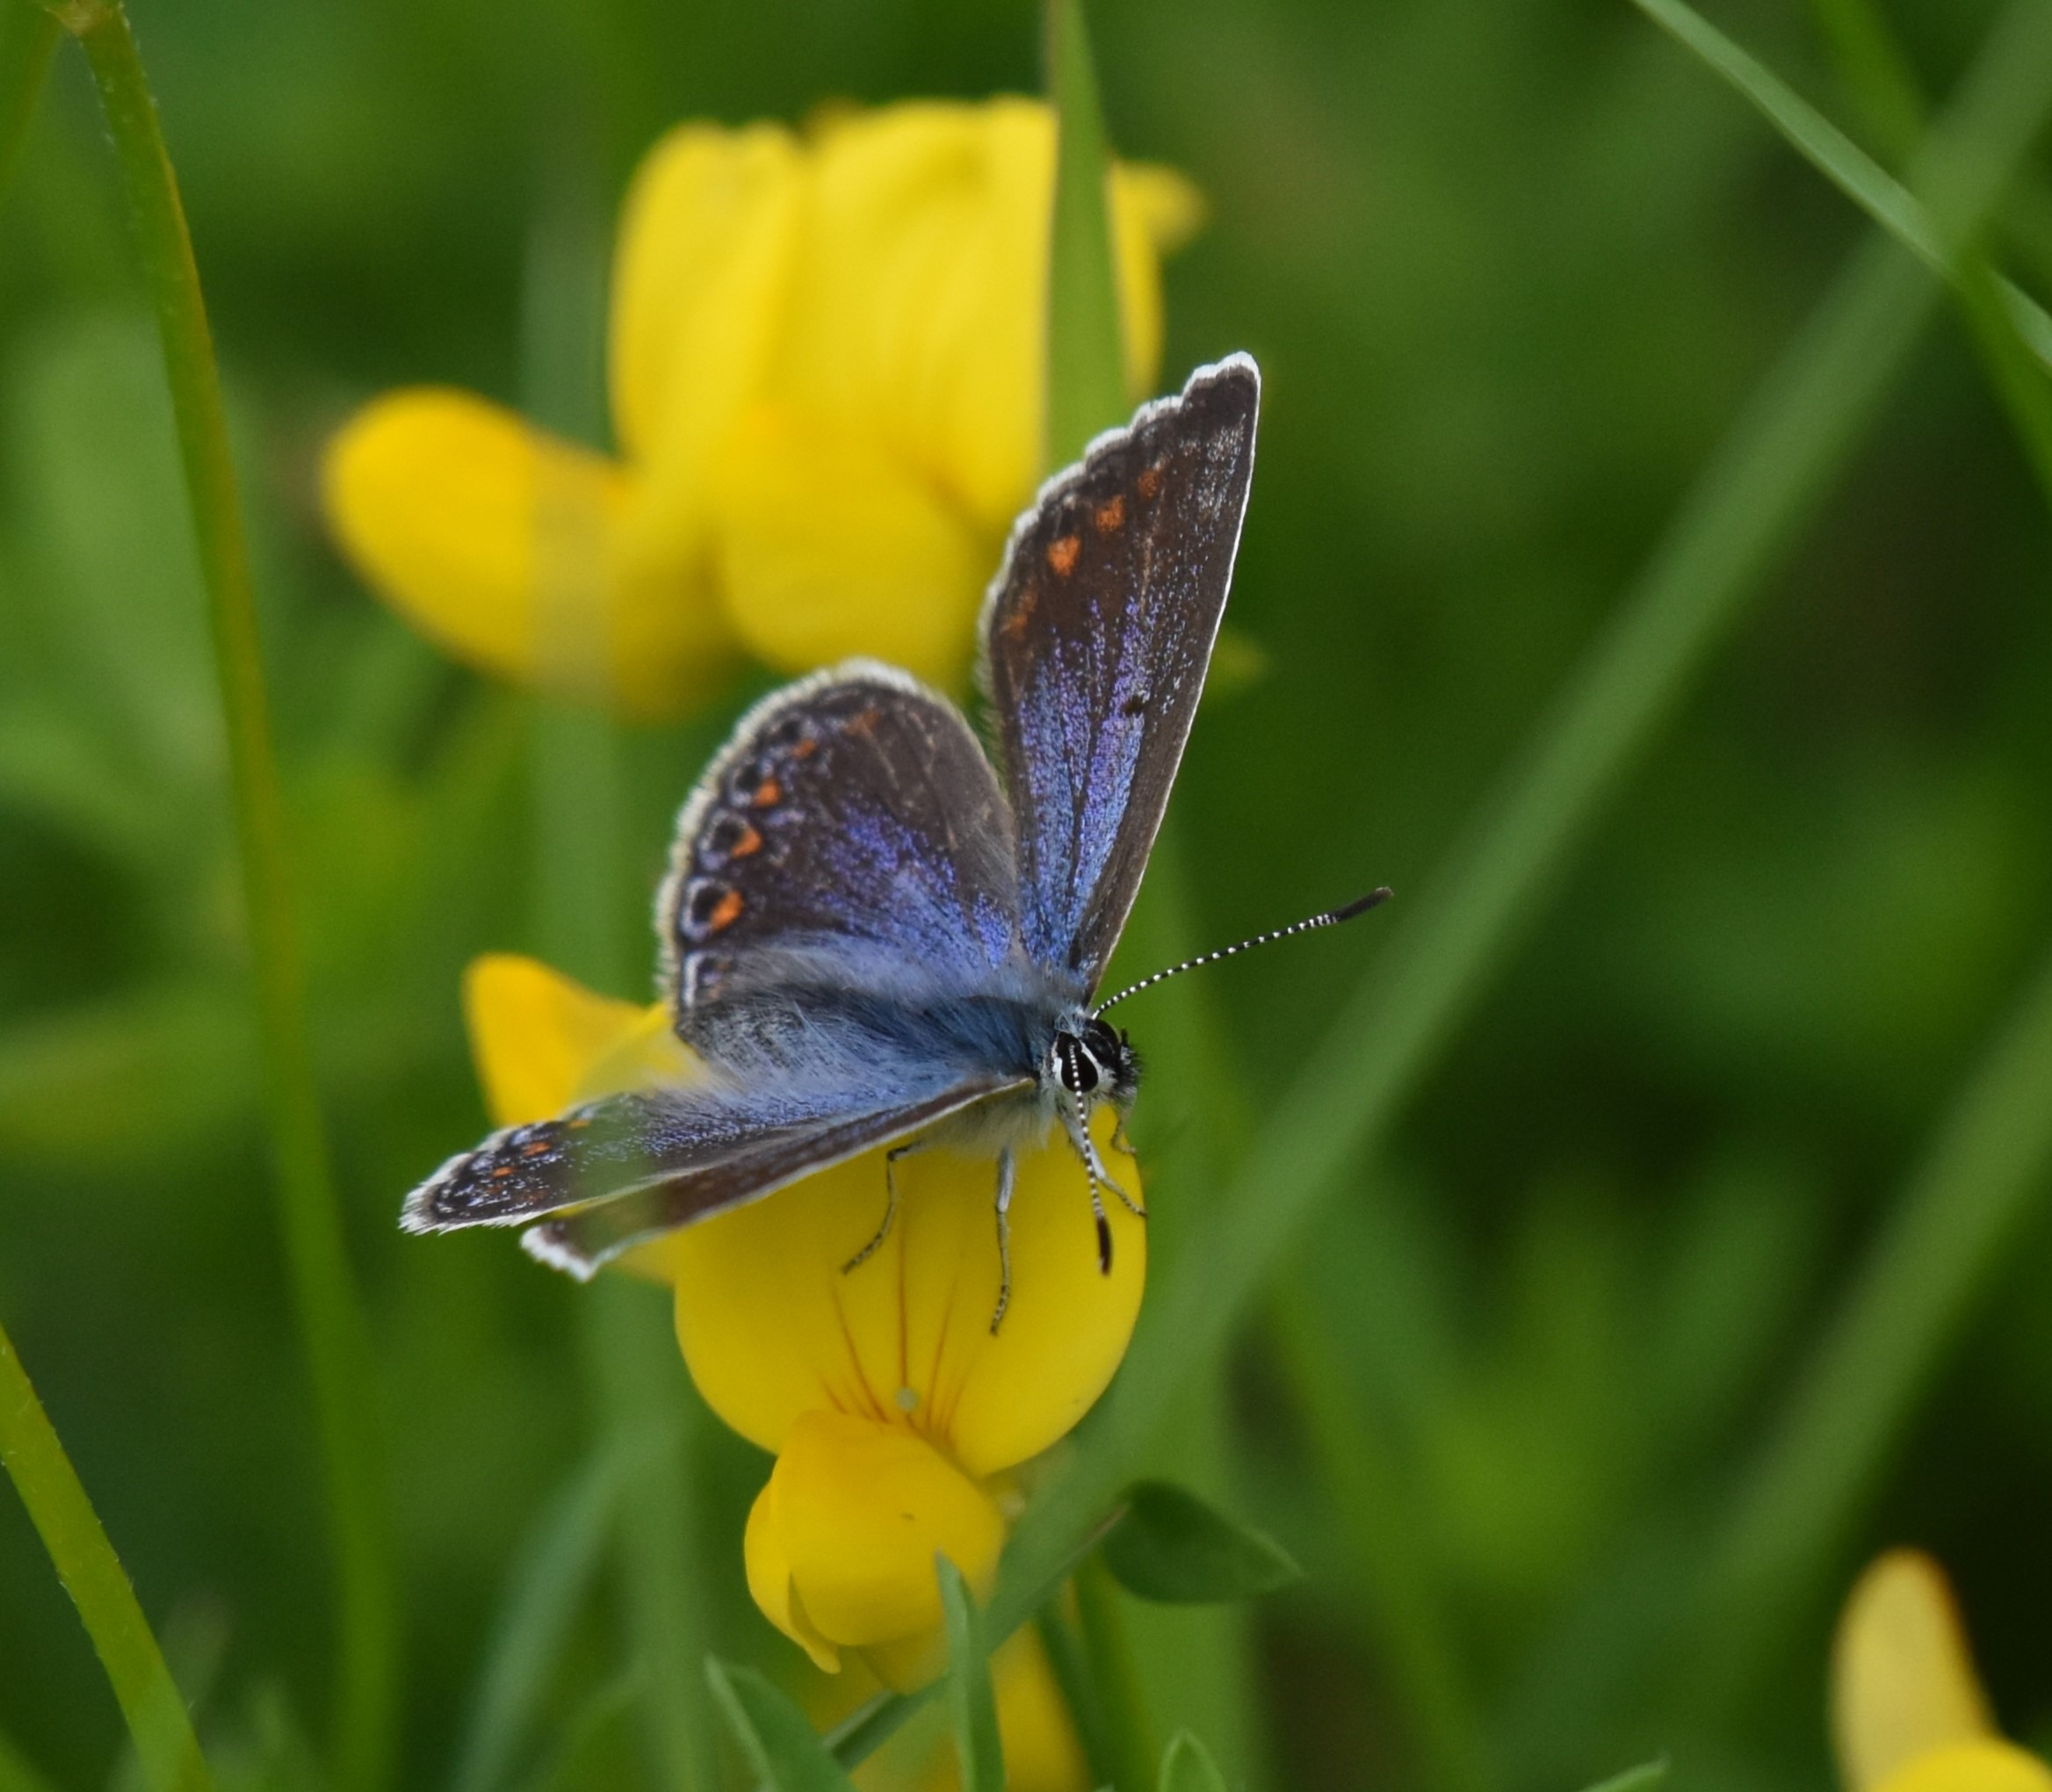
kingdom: Animalia
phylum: Arthropoda
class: Insecta
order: Lepidoptera
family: Lycaenidae
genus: Polyommatus
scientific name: Polyommatus icarus
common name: Almindelig blåfugl
